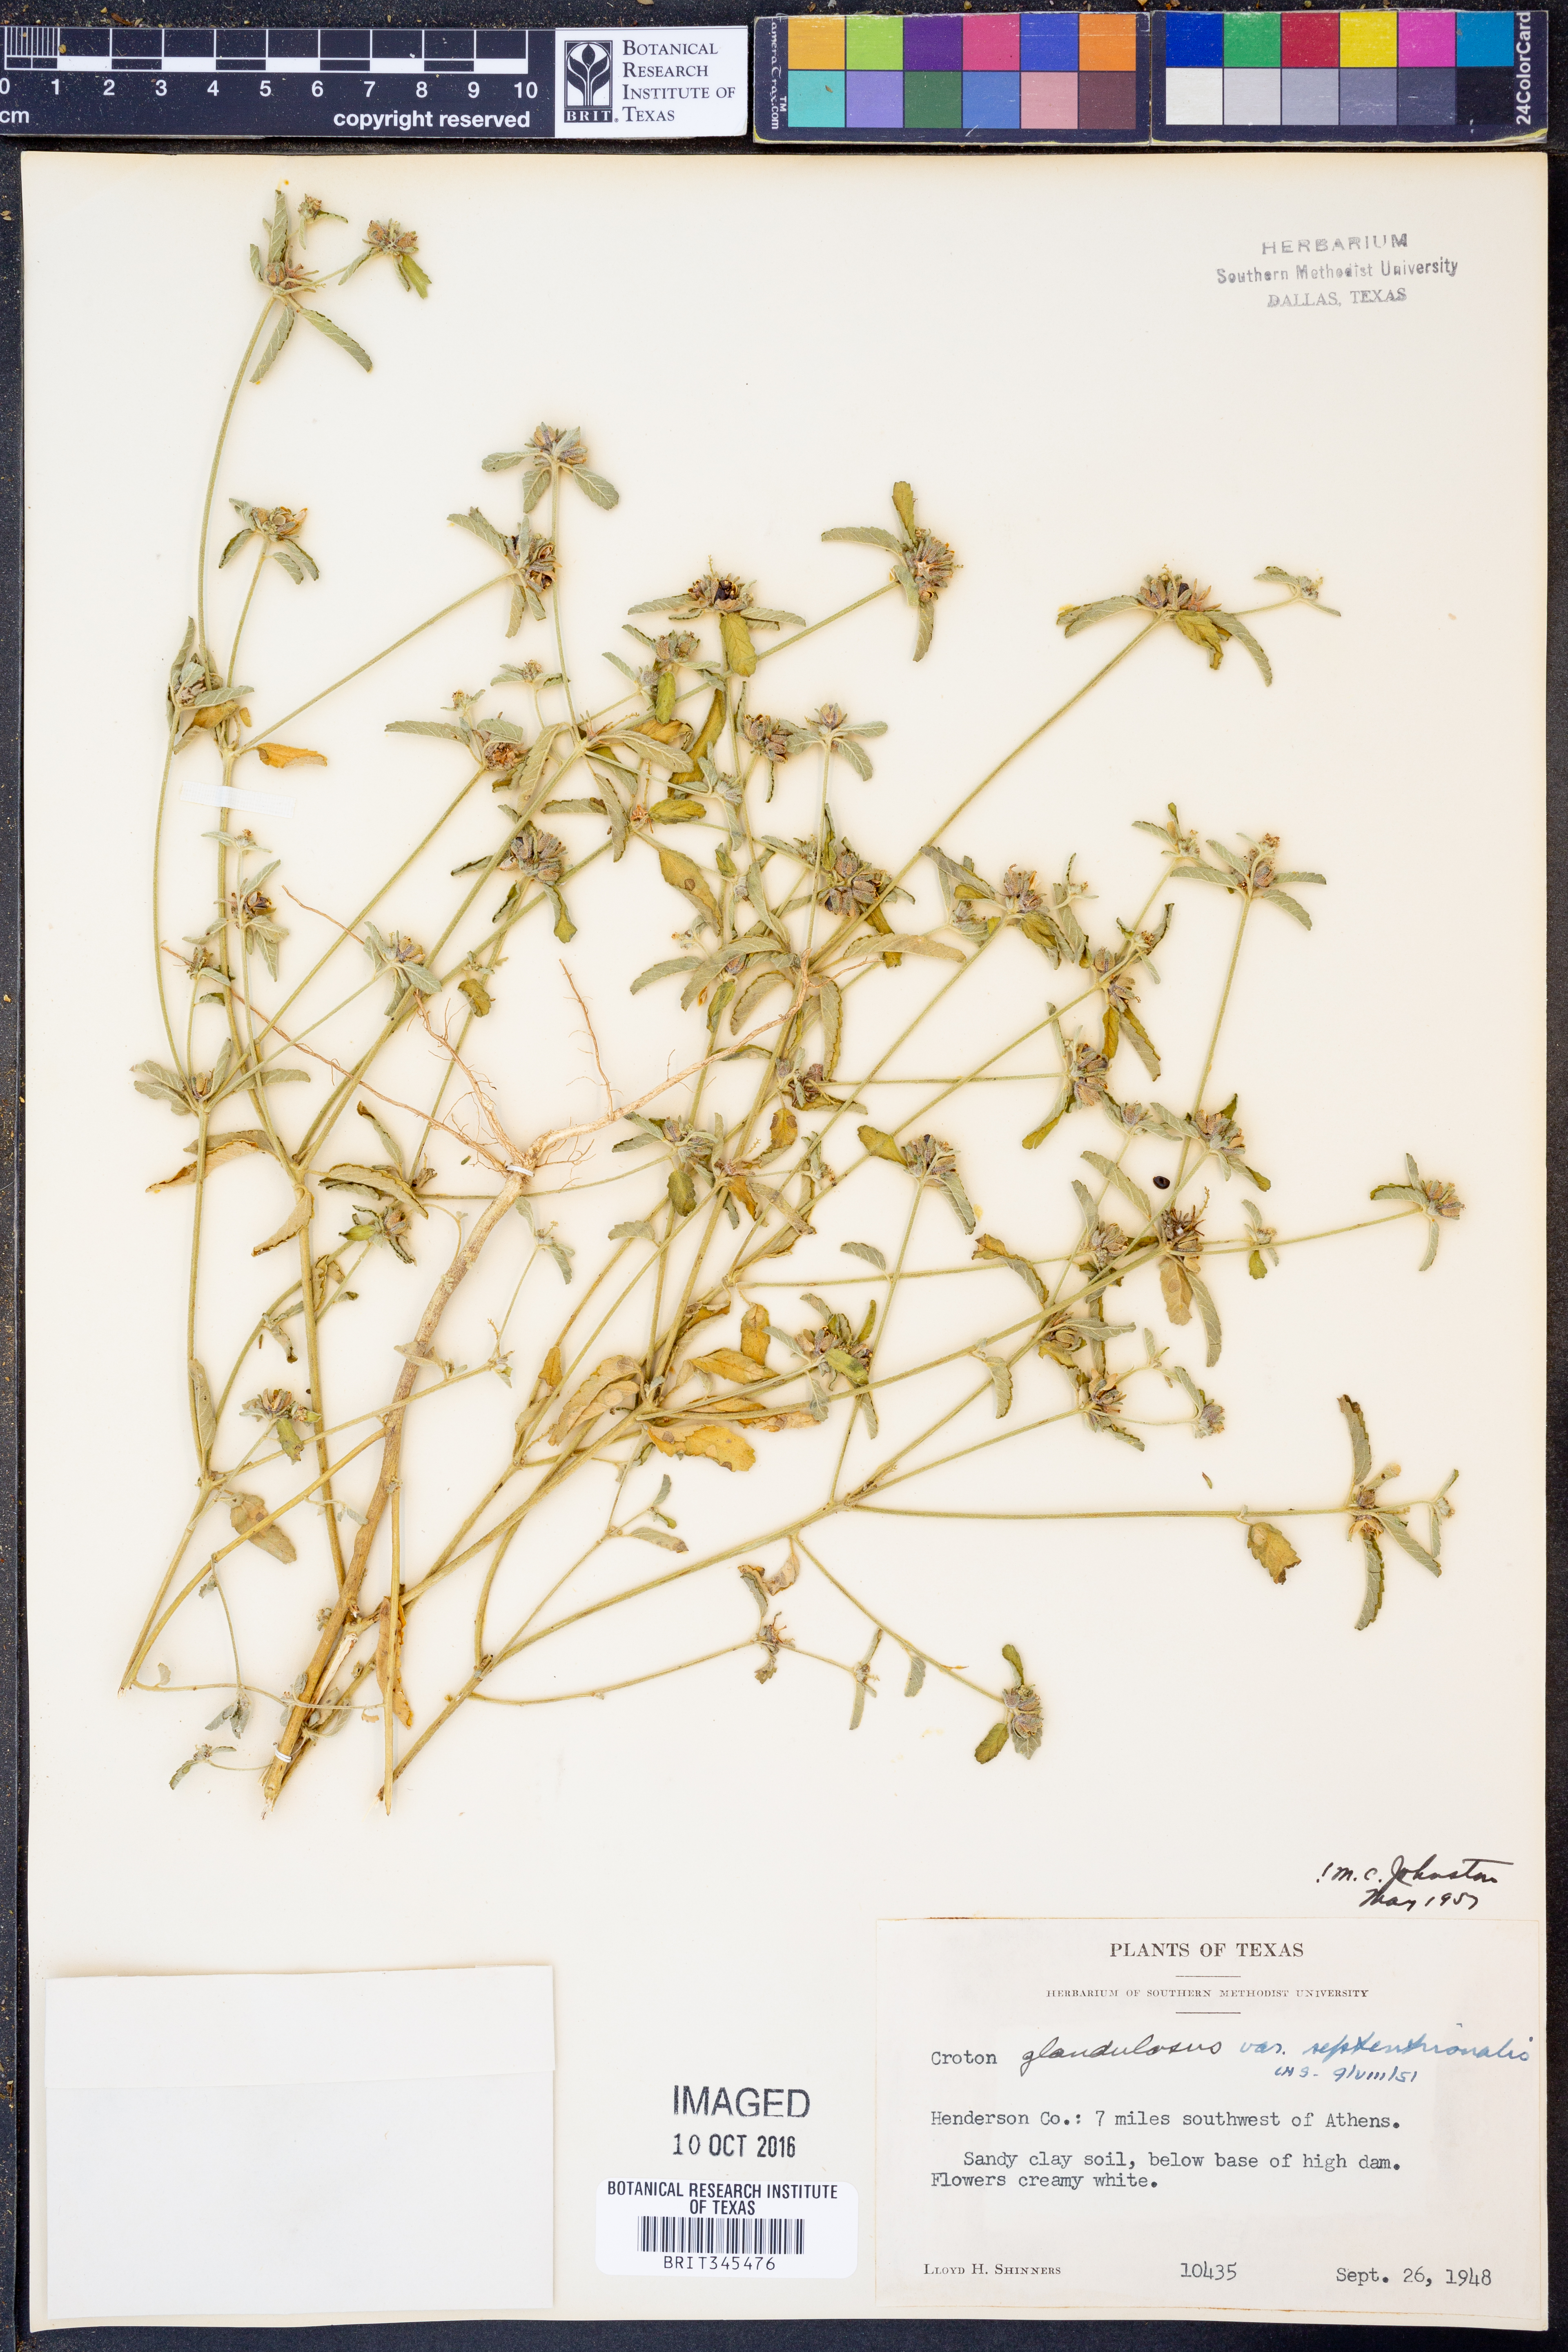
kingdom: Plantae
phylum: Tracheophyta
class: Magnoliopsida
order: Malpighiales
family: Euphorbiaceae
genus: Croton
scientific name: Croton glandulosus
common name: Tropic croton
